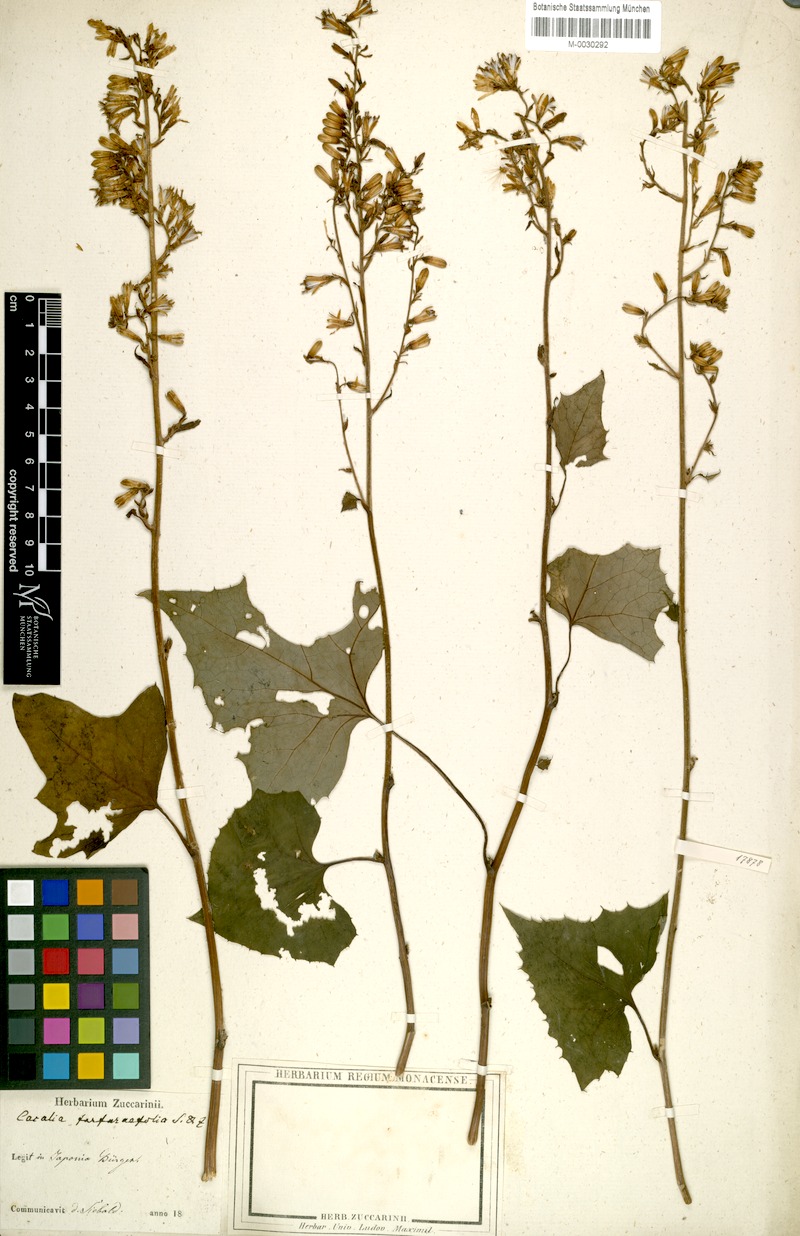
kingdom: Plantae
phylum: Tracheophyta
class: Magnoliopsida
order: Asterales
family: Asteraceae
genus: Parasenecio
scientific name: Parasenecio farfarifolius
